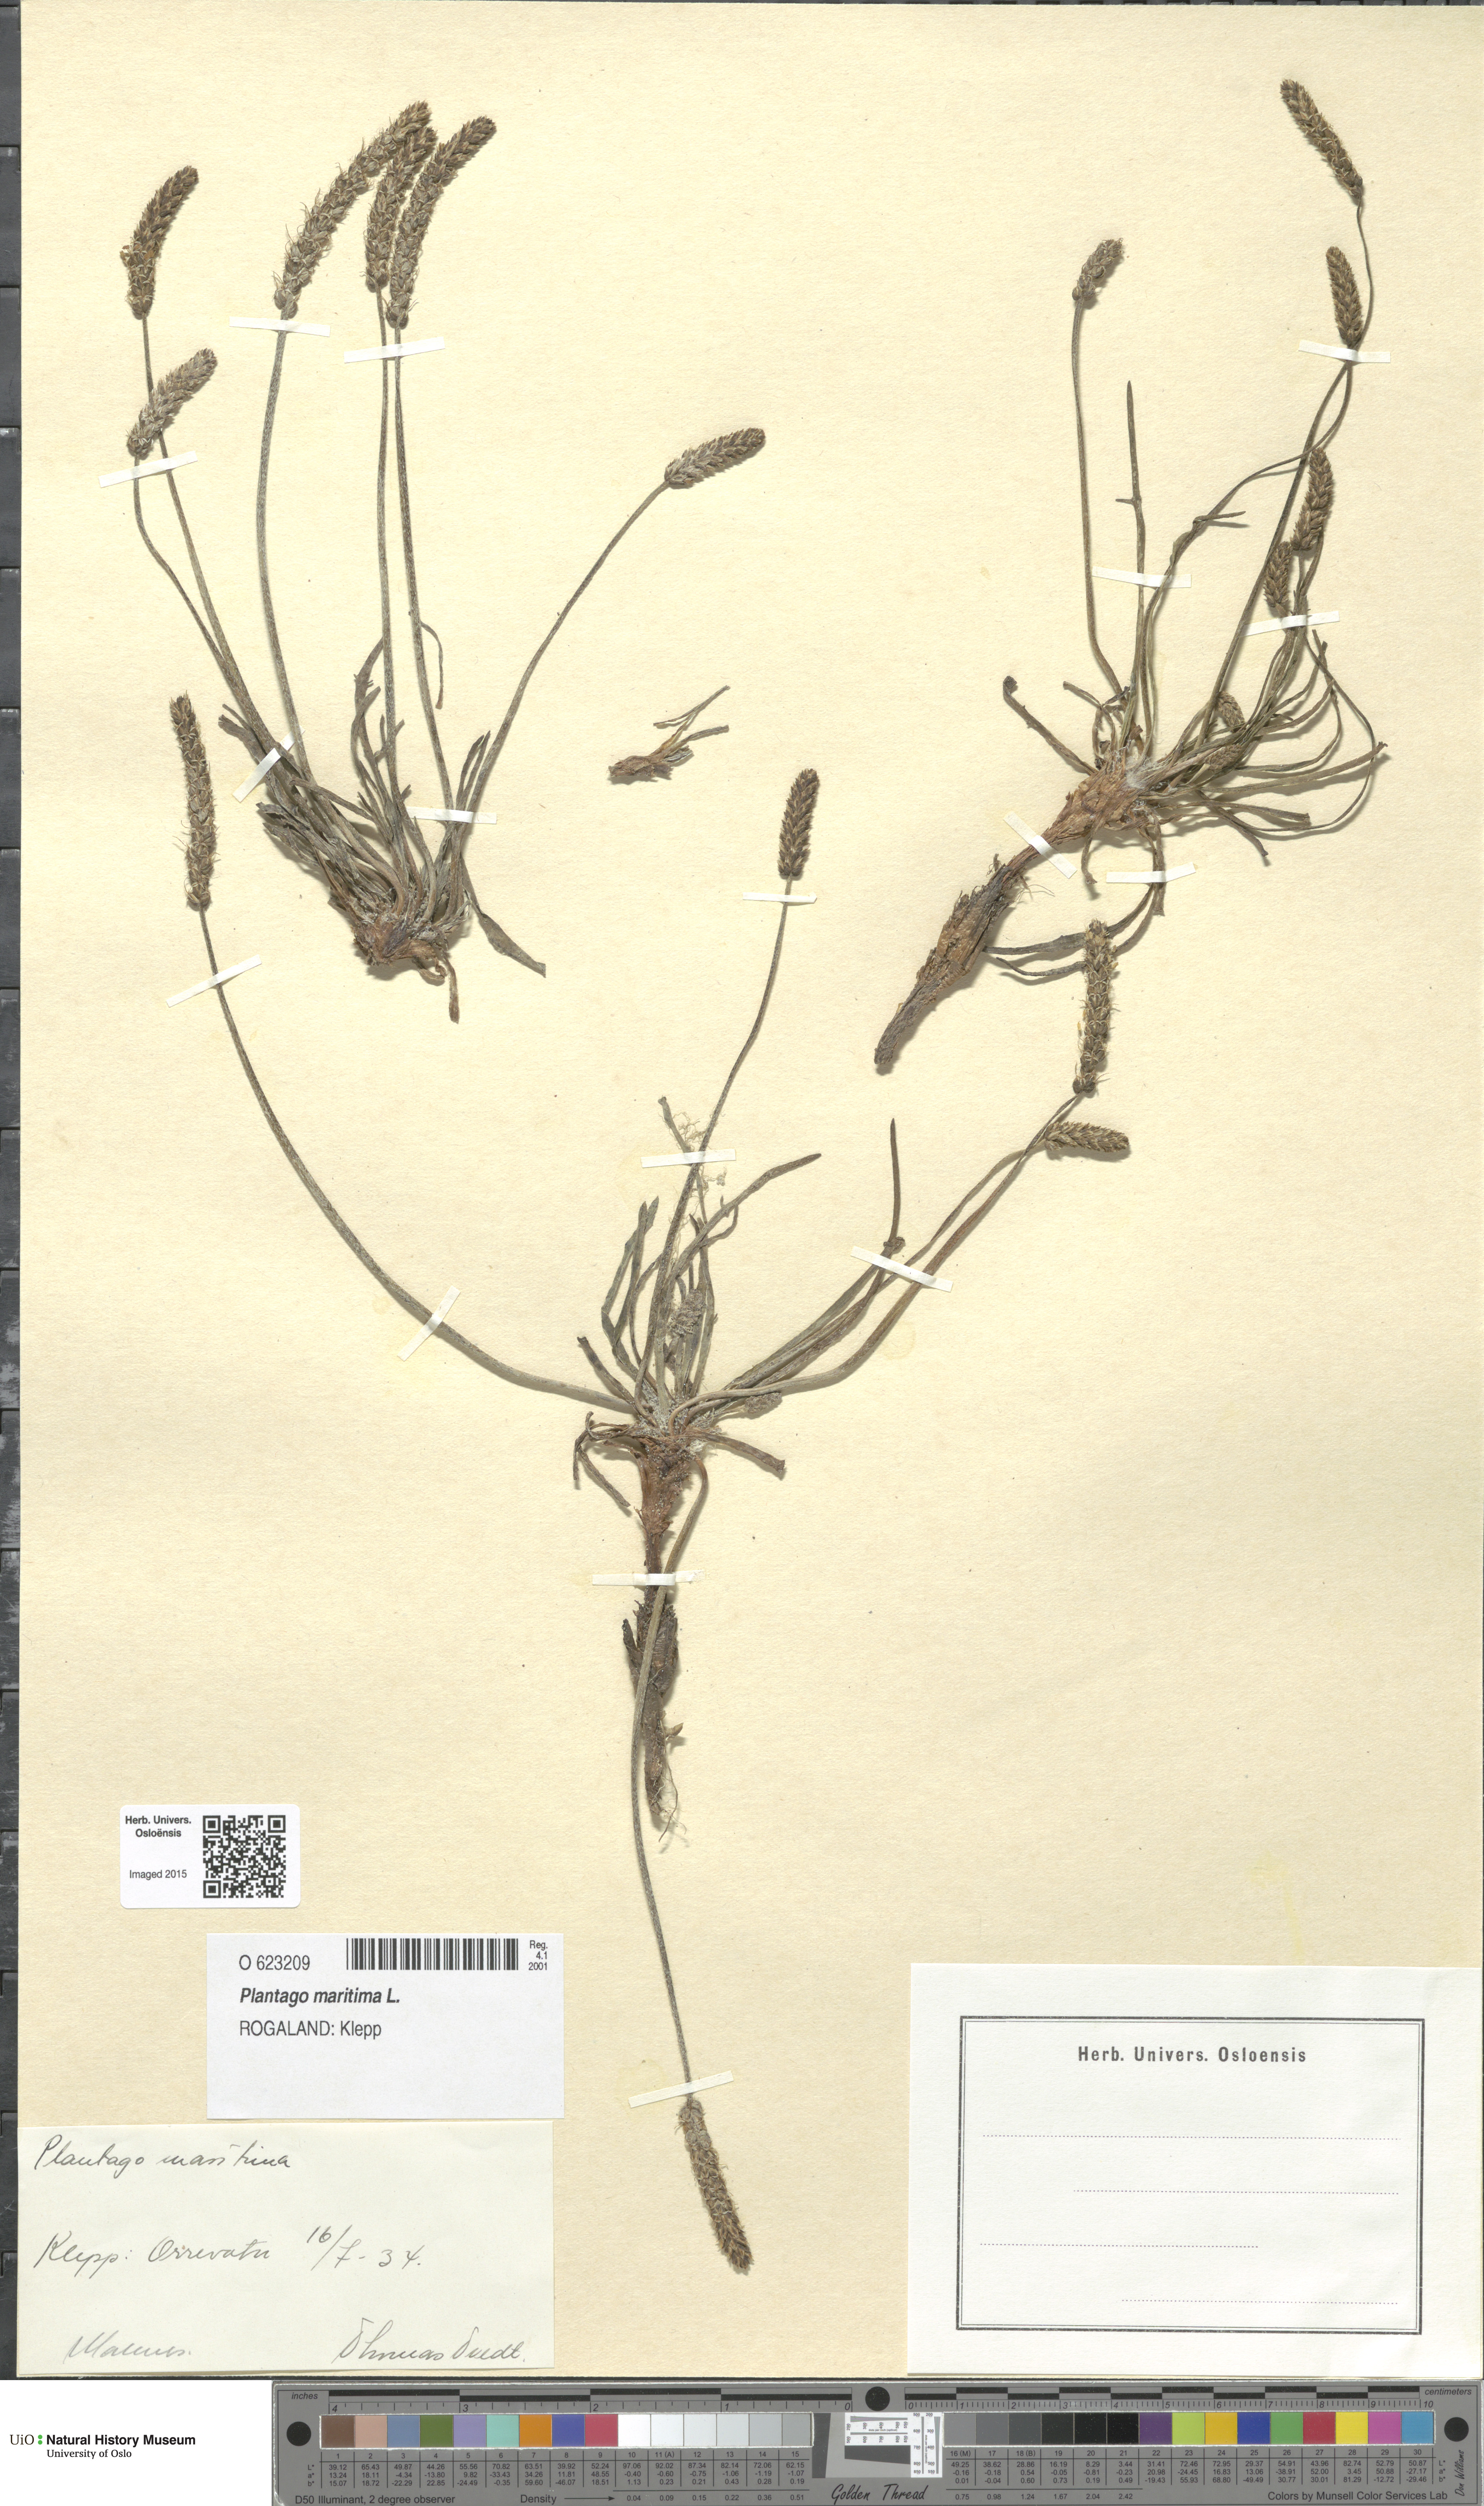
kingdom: Plantae
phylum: Tracheophyta
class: Magnoliopsida
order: Lamiales
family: Plantaginaceae
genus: Plantago
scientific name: Plantago maritima
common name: Sea plantain
